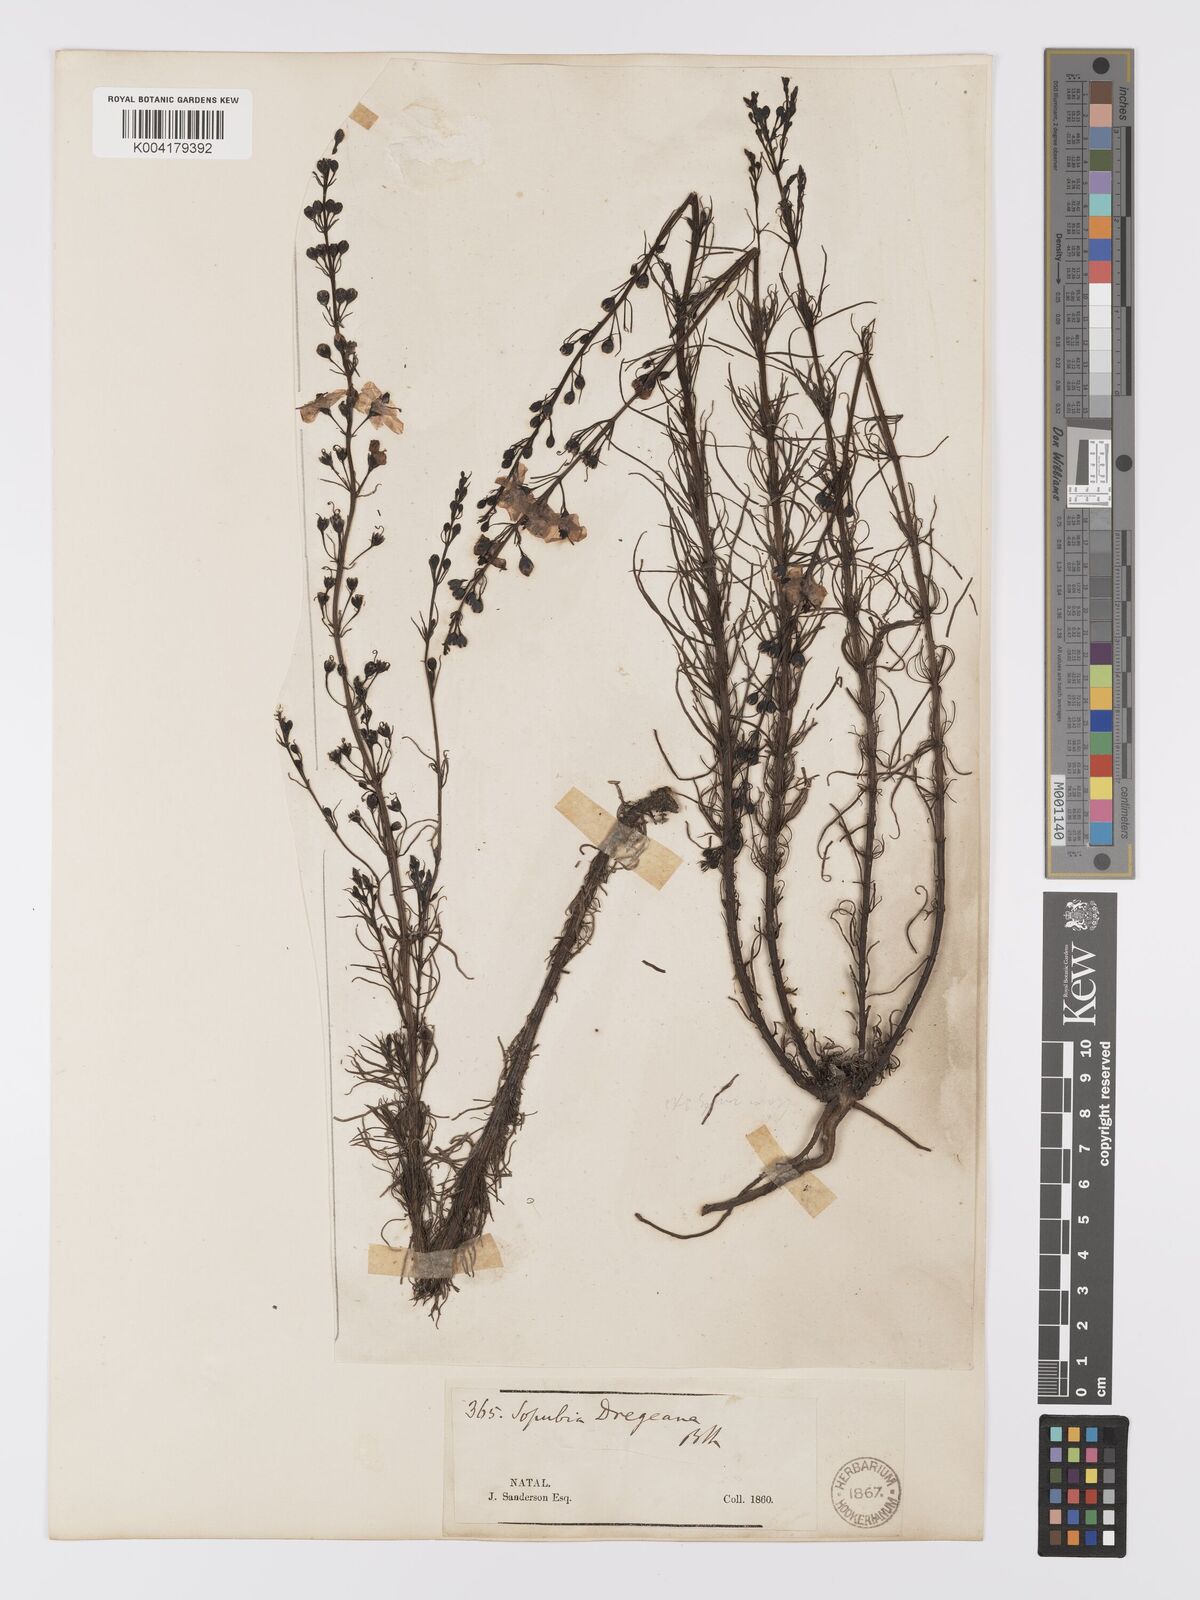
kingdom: Plantae
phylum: Tracheophyta
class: Magnoliopsida
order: Lamiales
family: Orobanchaceae
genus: Sopubia
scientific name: Sopubia simplex
